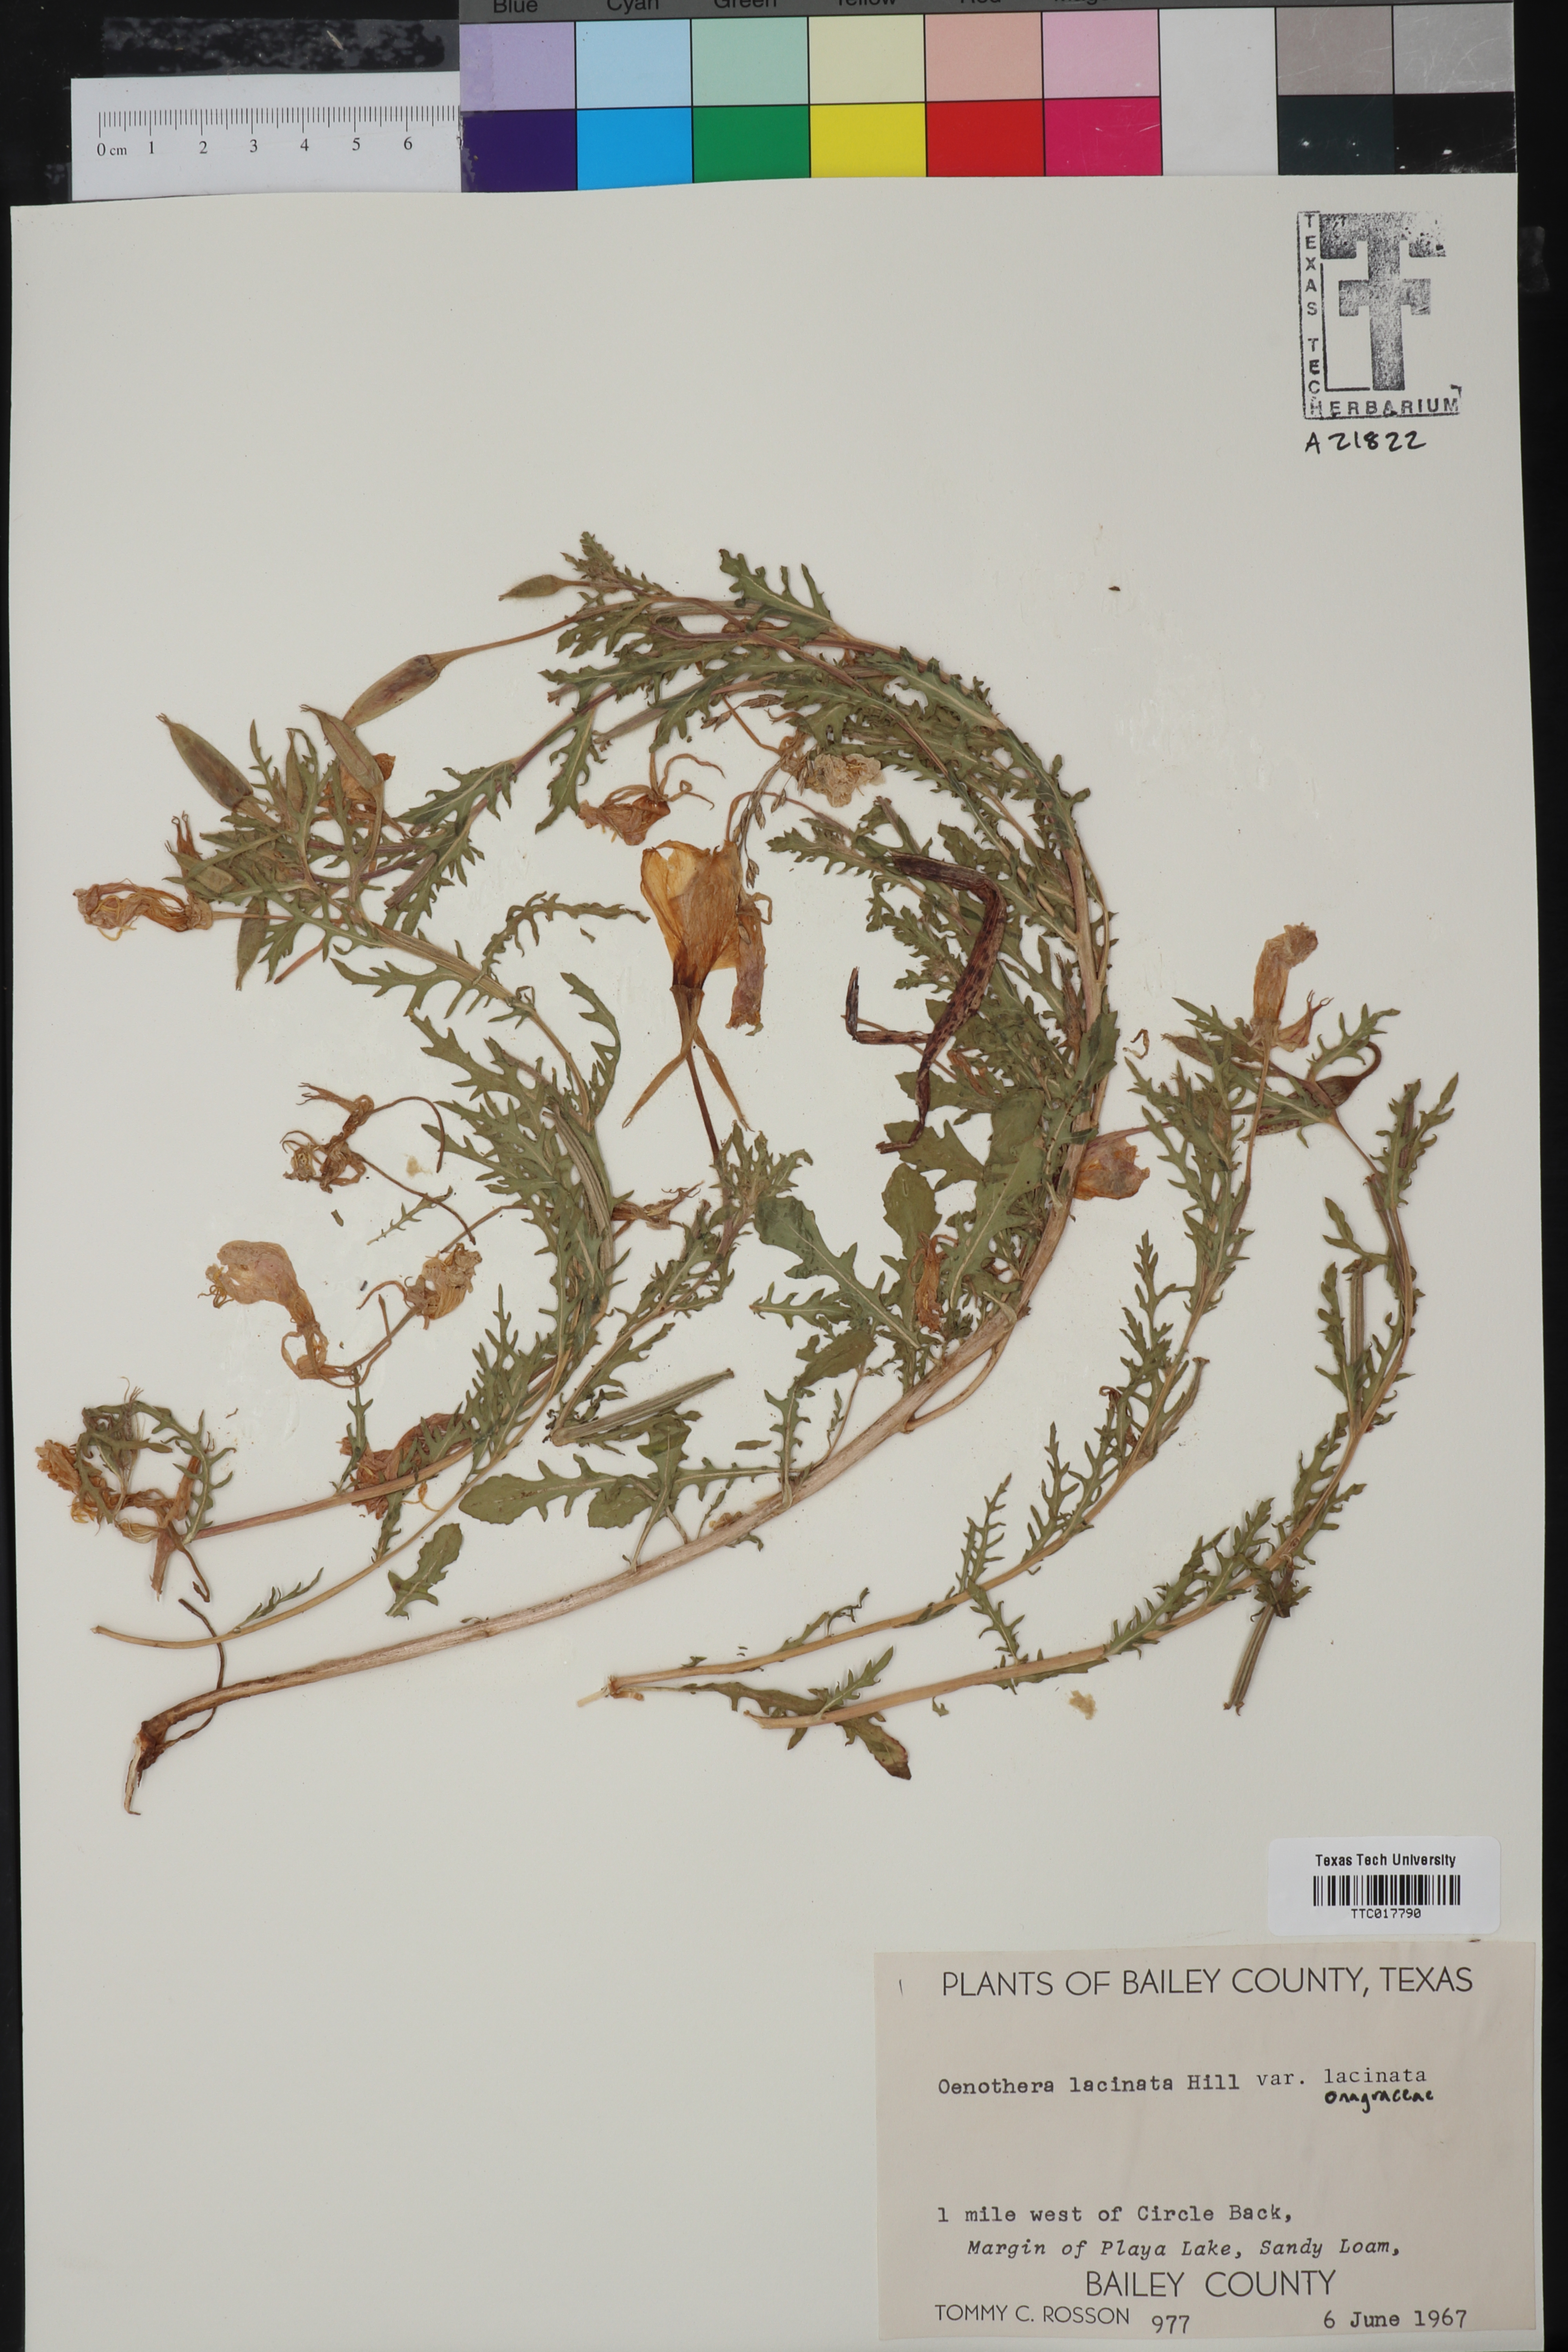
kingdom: Plantae
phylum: Tracheophyta
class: Magnoliopsida
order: Myrtales
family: Onagraceae
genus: Oenothera
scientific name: Oenothera laciniata
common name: Cut-leaved evening-primrose
